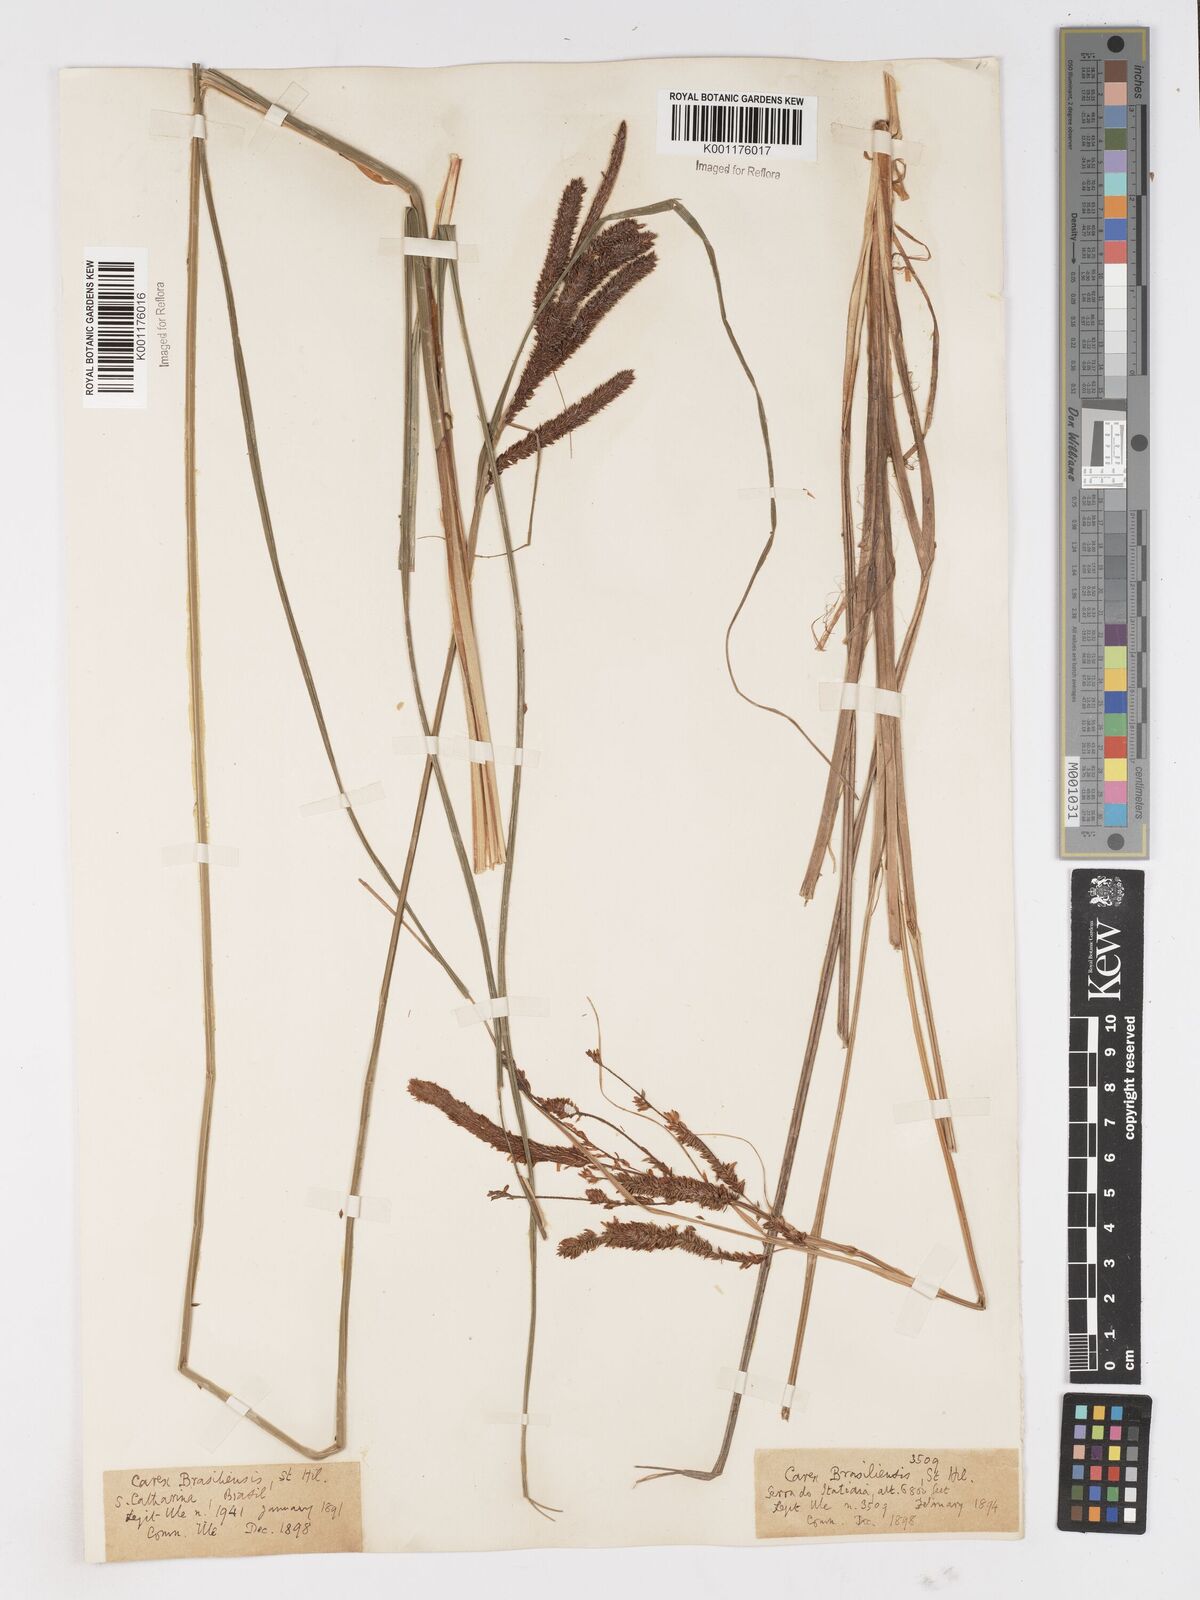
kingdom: Plantae
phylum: Tracheophyta
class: Liliopsida
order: Poales
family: Cyperaceae
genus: Carex
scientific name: Carex brasiliensis
